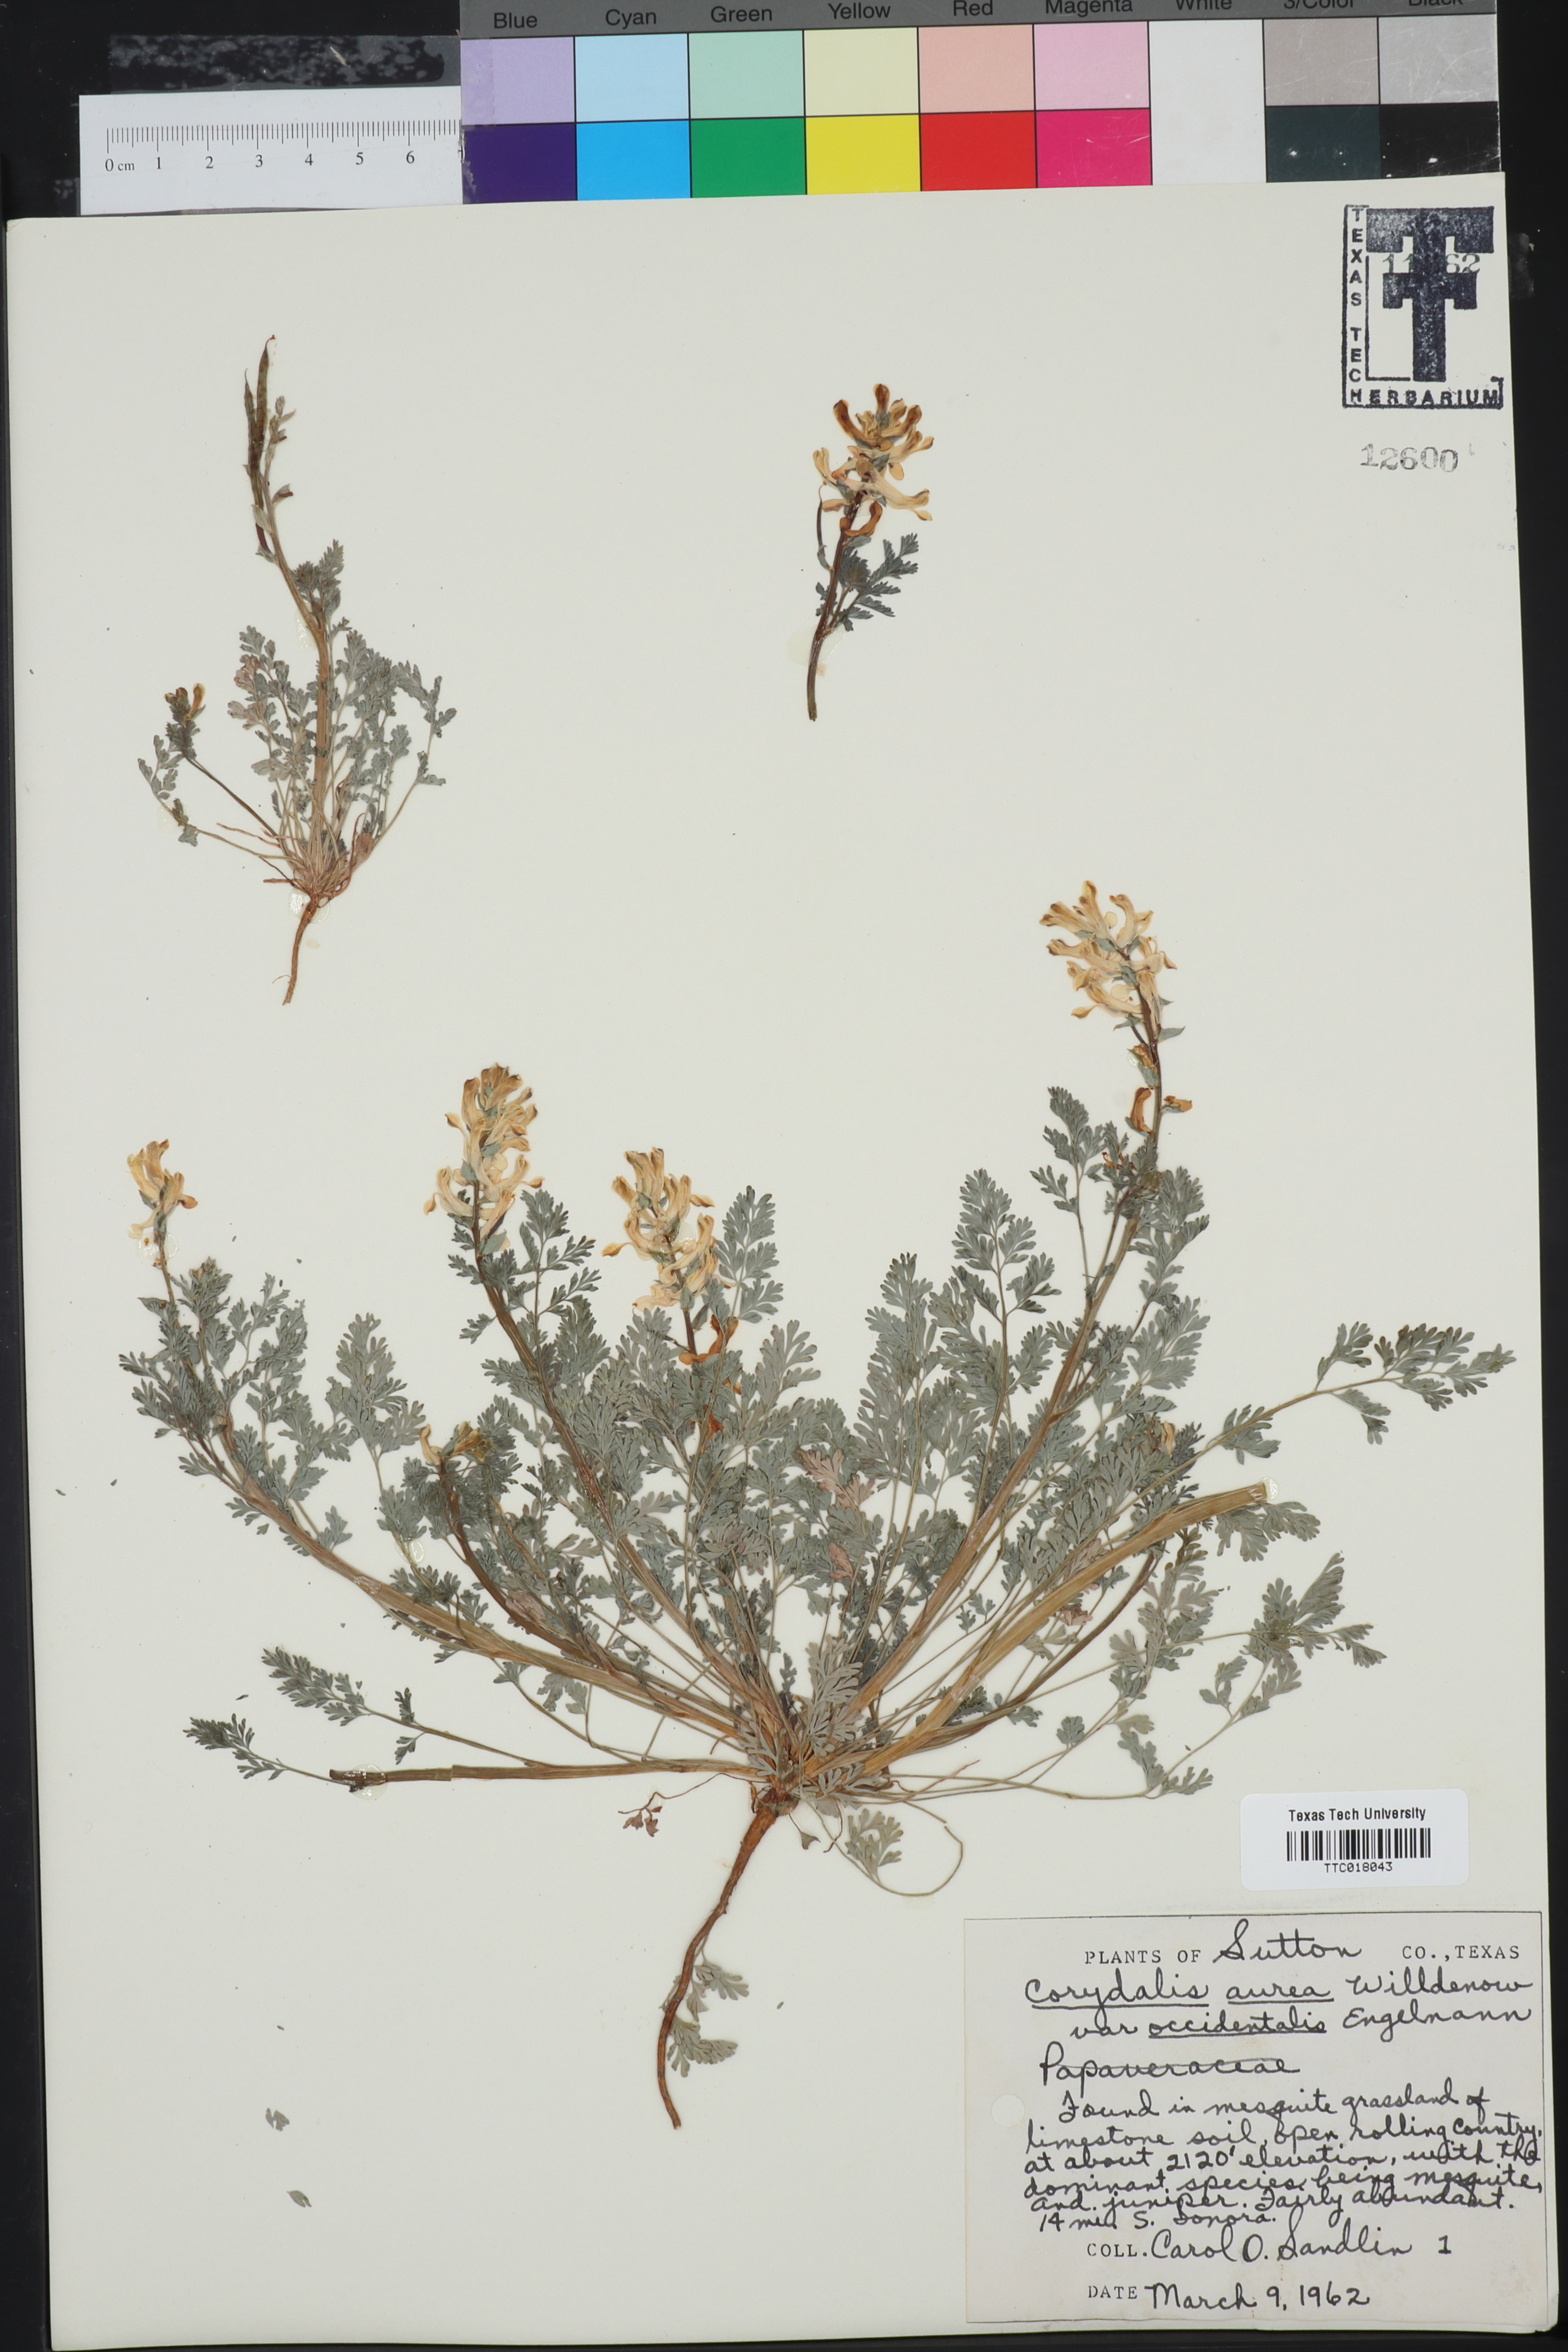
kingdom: Plantae
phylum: Tracheophyta
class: Magnoliopsida
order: Ranunculales
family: Papaveraceae
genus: Corydalis
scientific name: Corydalis curvisiliqua
